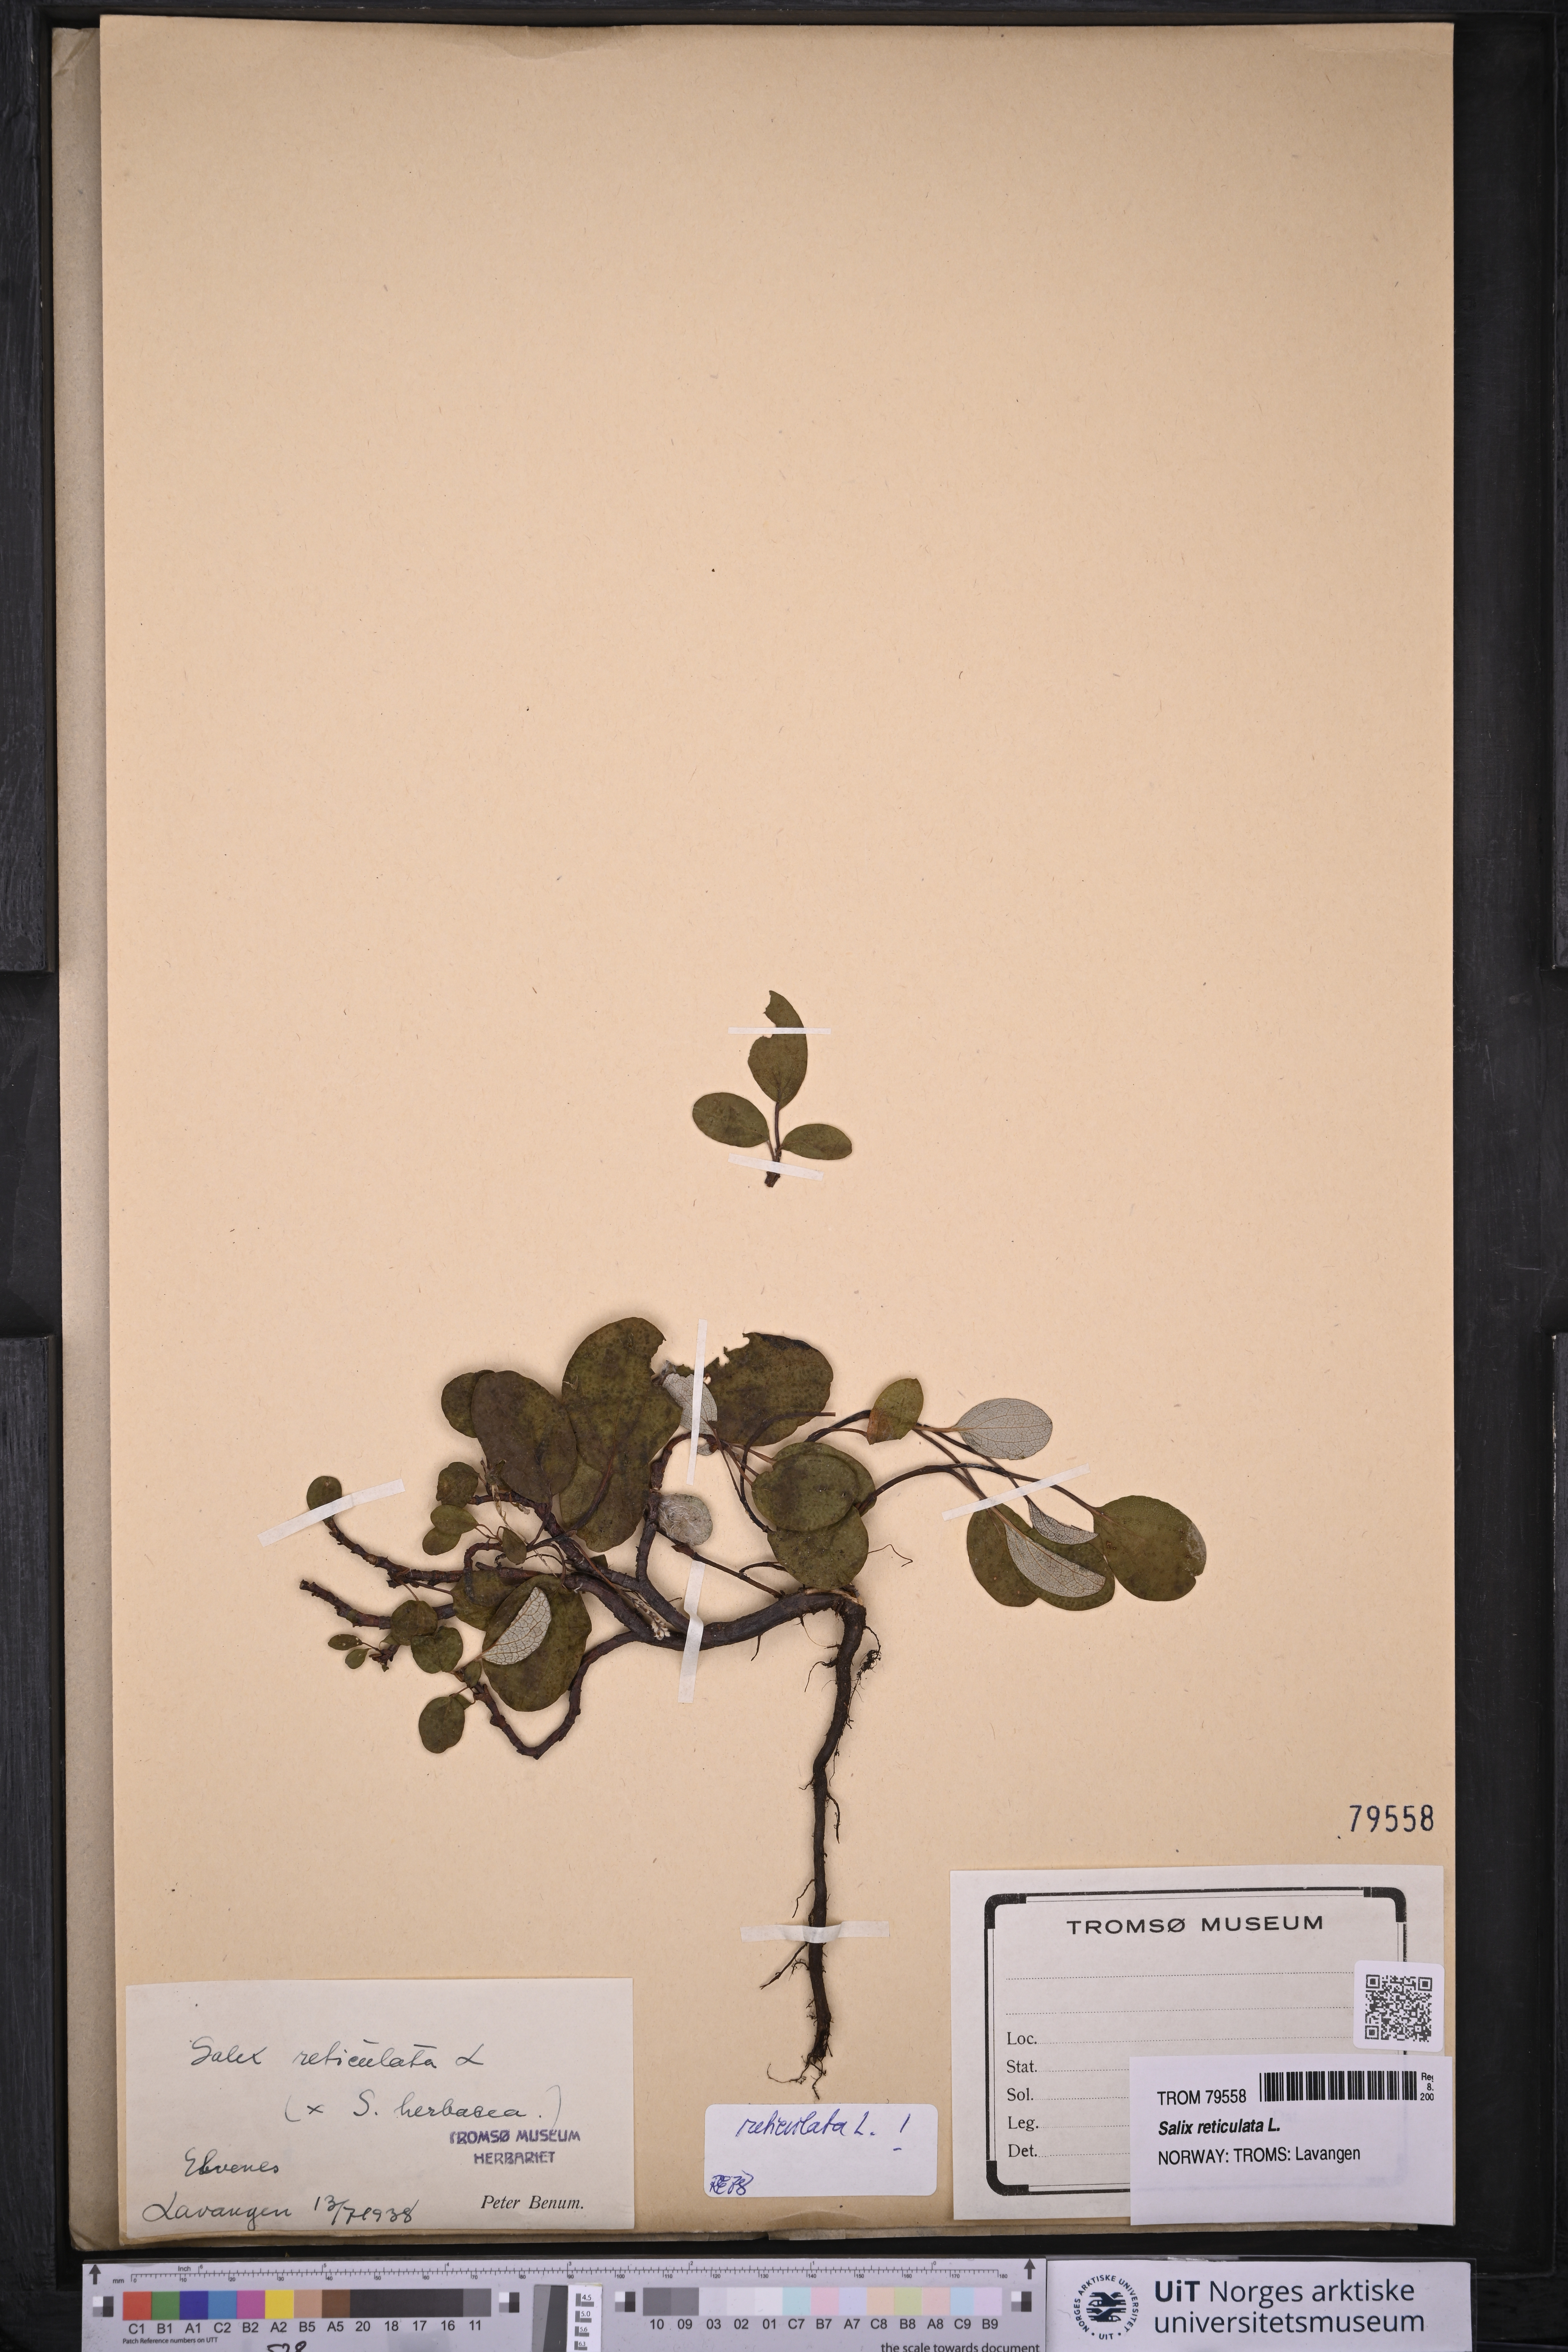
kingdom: Plantae
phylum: Tracheophyta
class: Magnoliopsida
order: Malpighiales
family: Salicaceae
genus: Salix
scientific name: Salix reticulata
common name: Net-leaved willow
